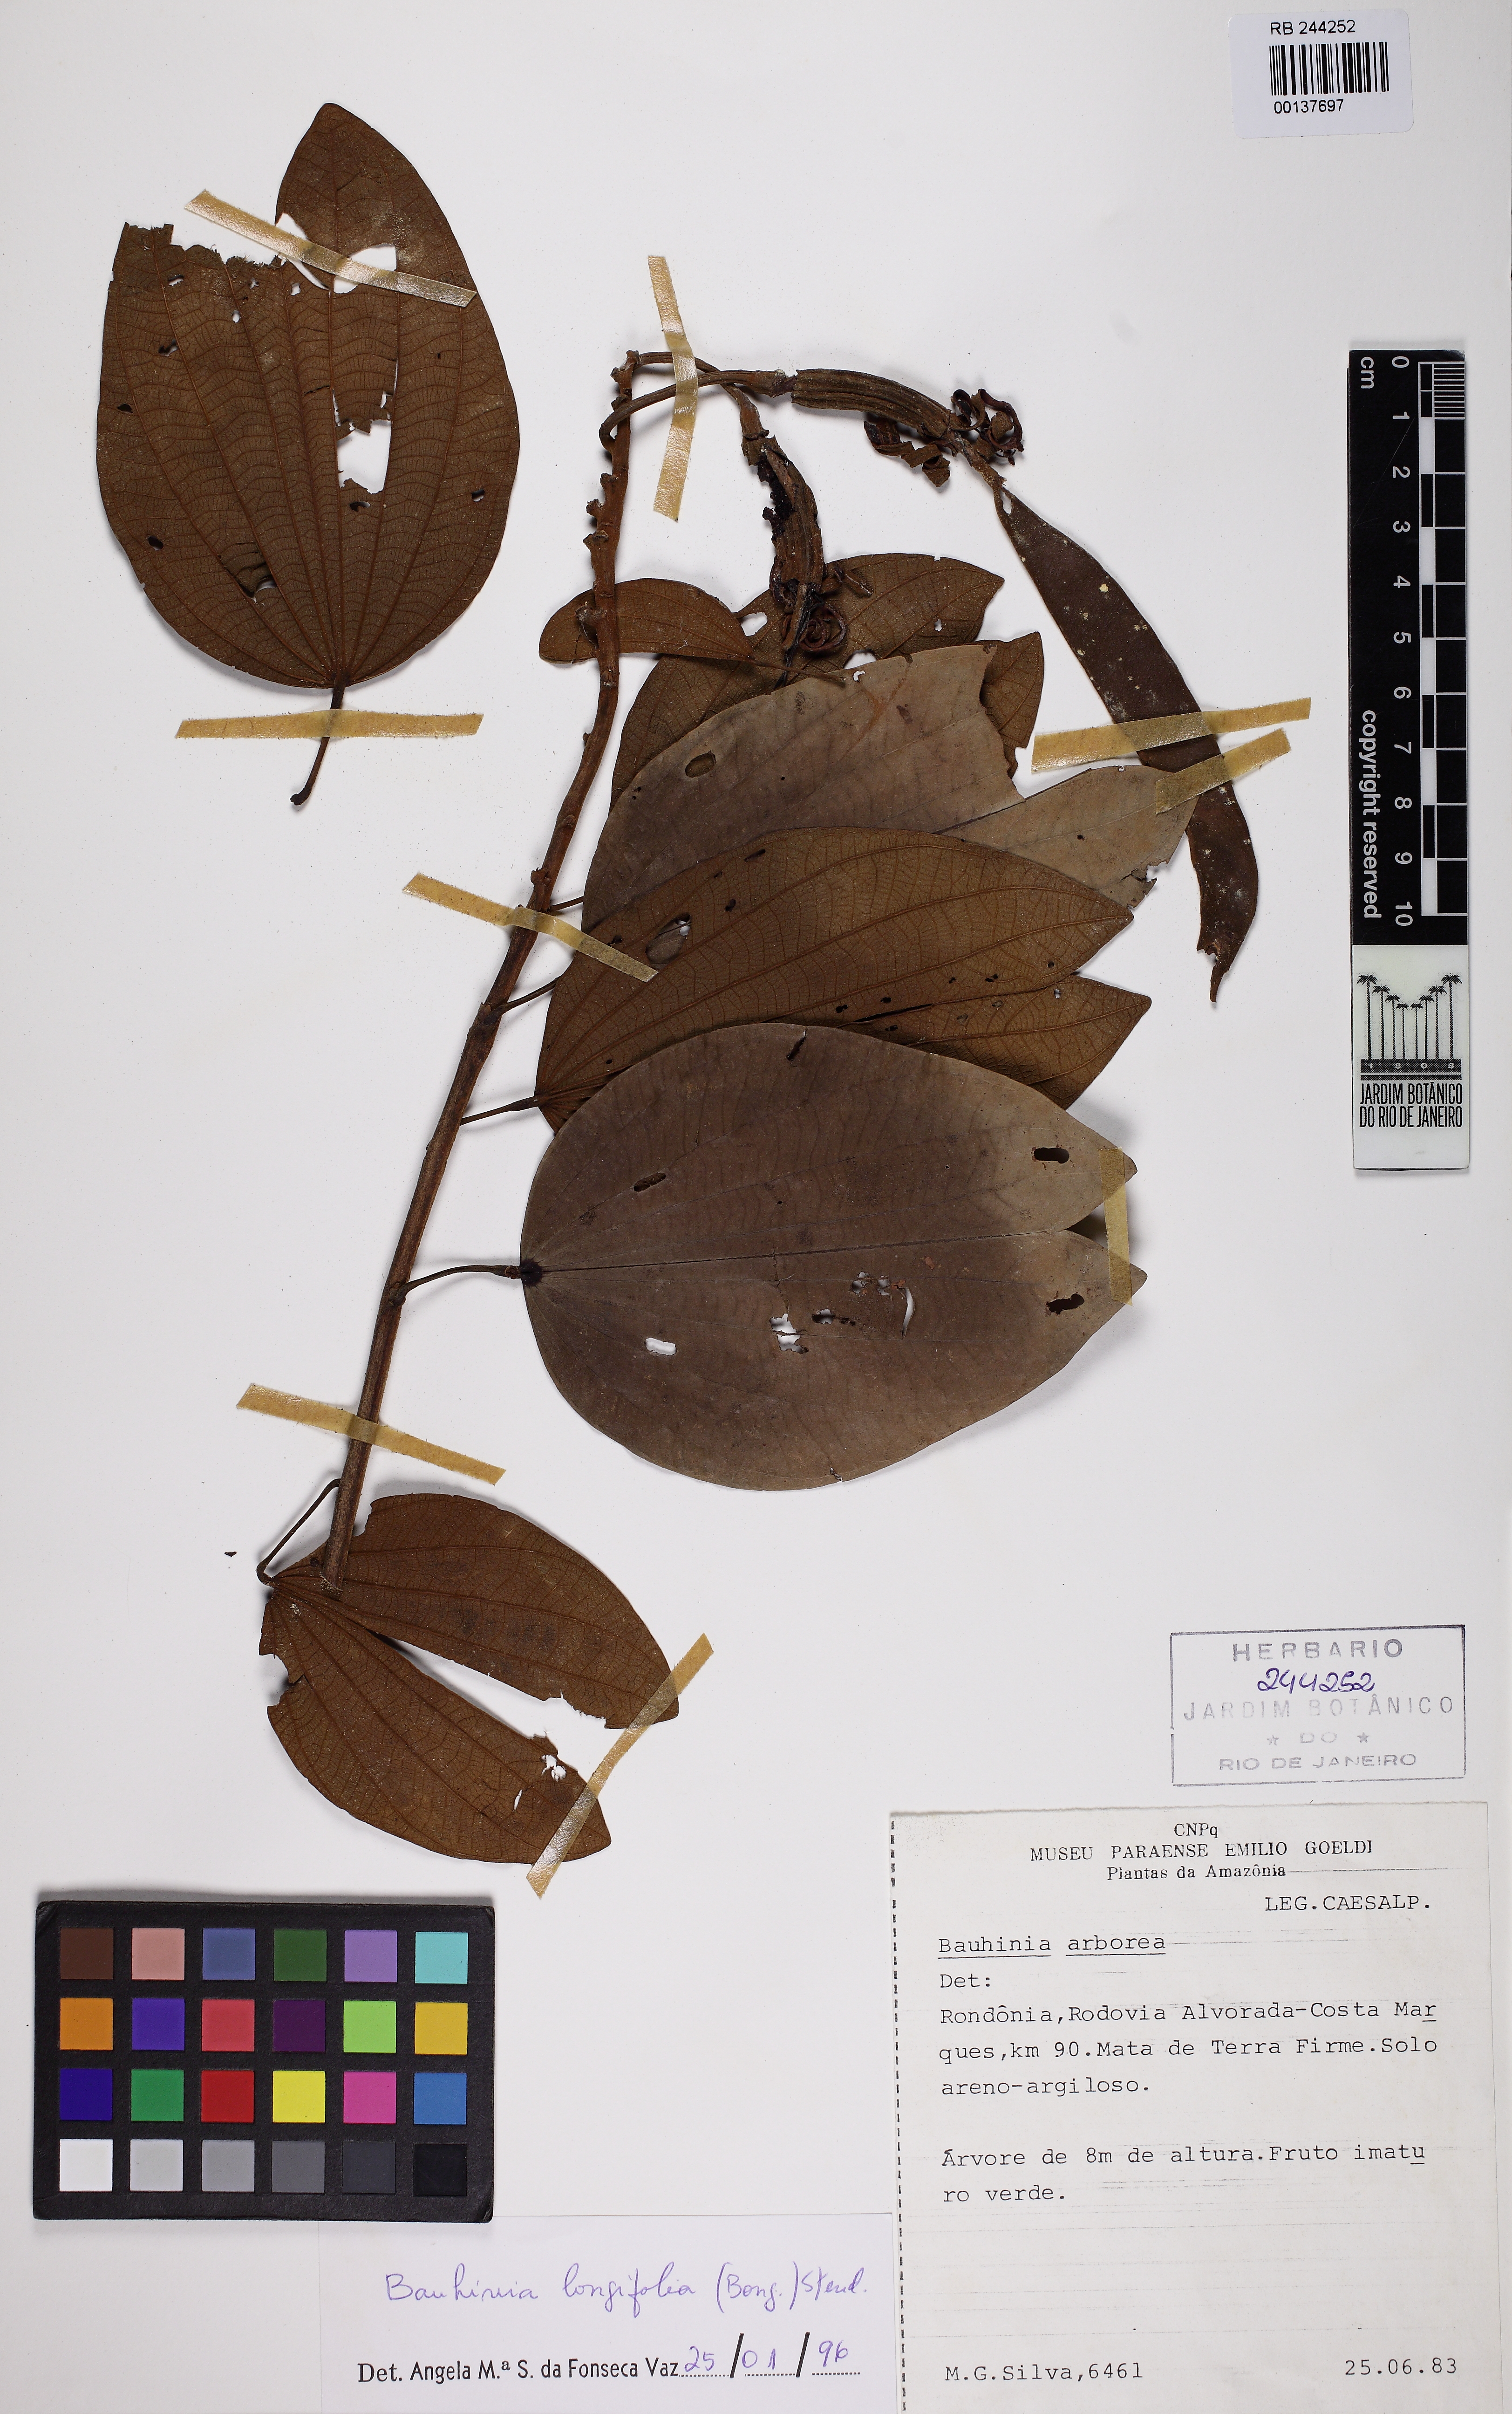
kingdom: Plantae
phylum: Tracheophyta
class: Magnoliopsida
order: Fabales
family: Fabaceae
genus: Bauhinia
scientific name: Bauhinia longifolia
